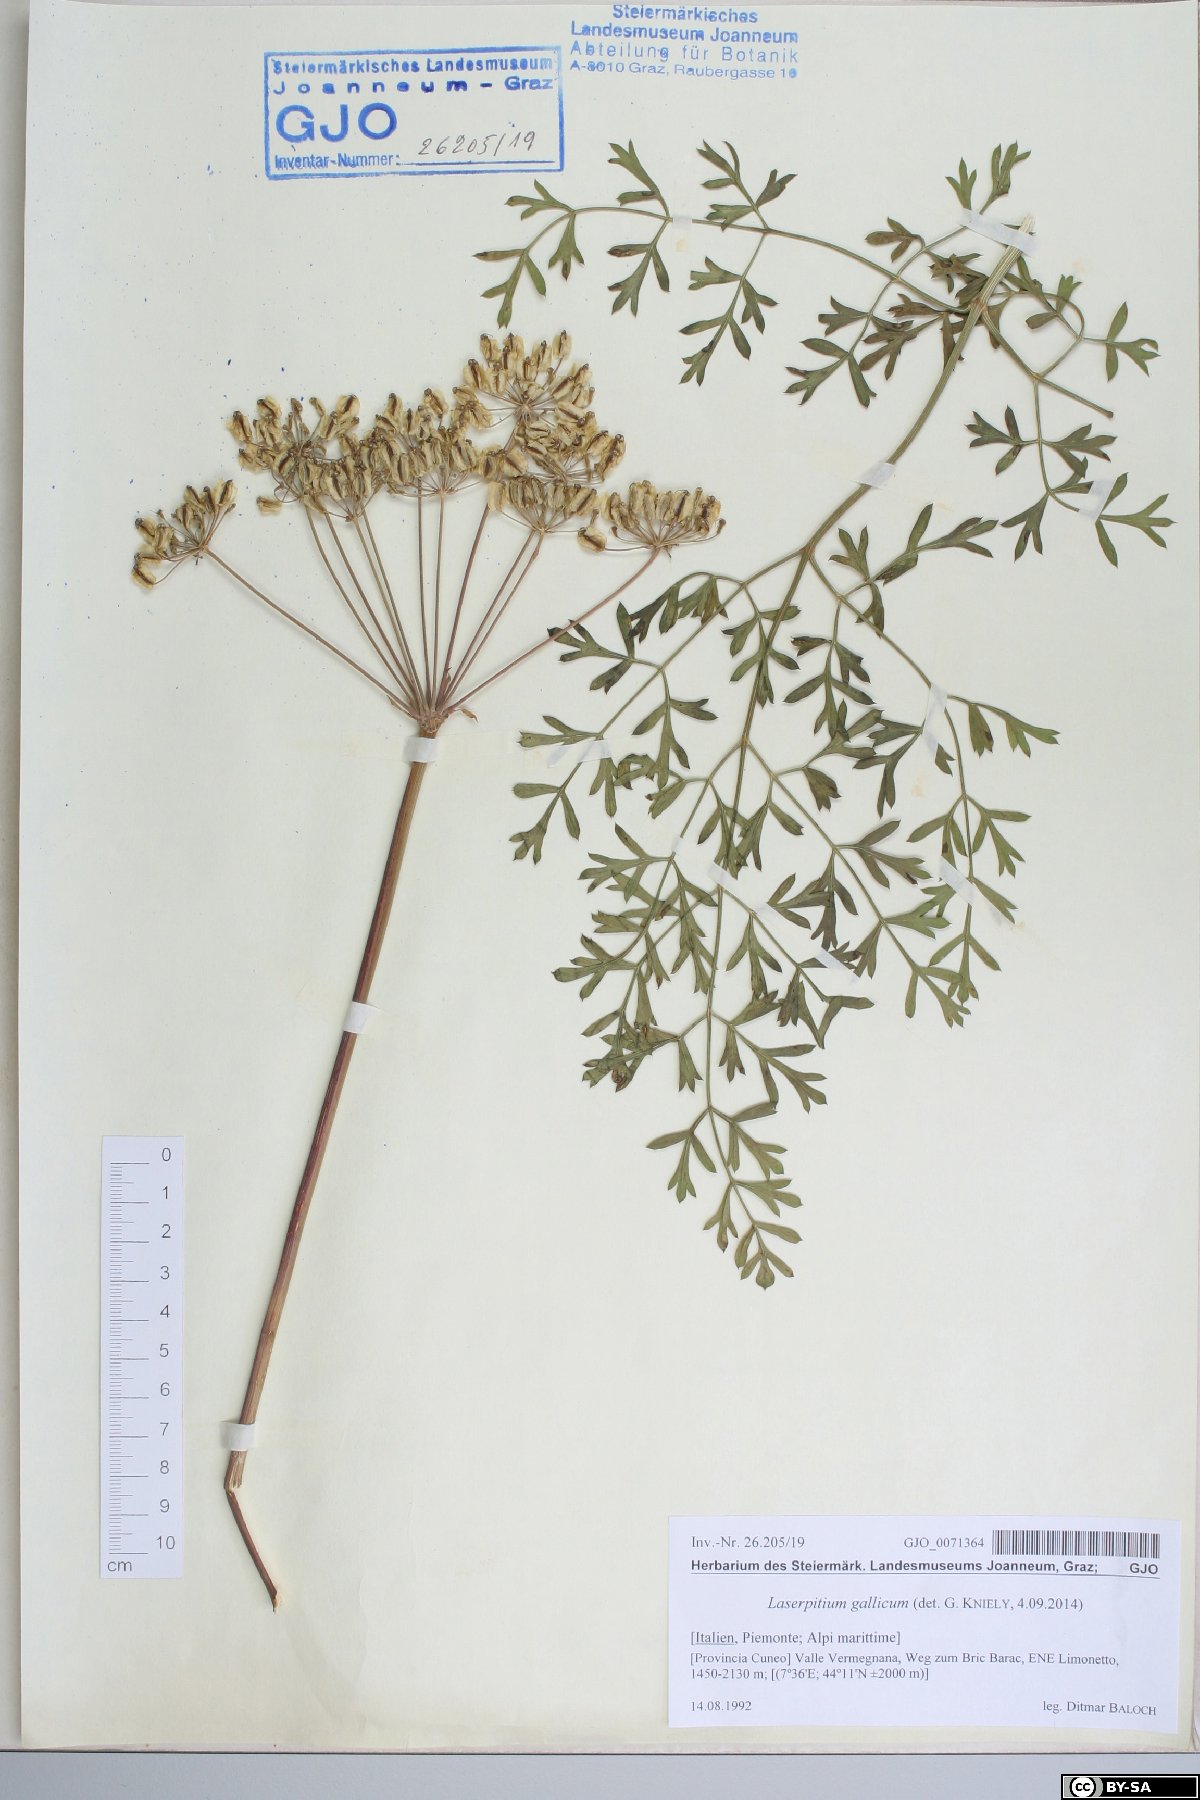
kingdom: Plantae
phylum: Tracheophyta
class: Magnoliopsida
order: Apiales
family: Apiaceae
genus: Laserpitium
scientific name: Laserpitium gallicum
